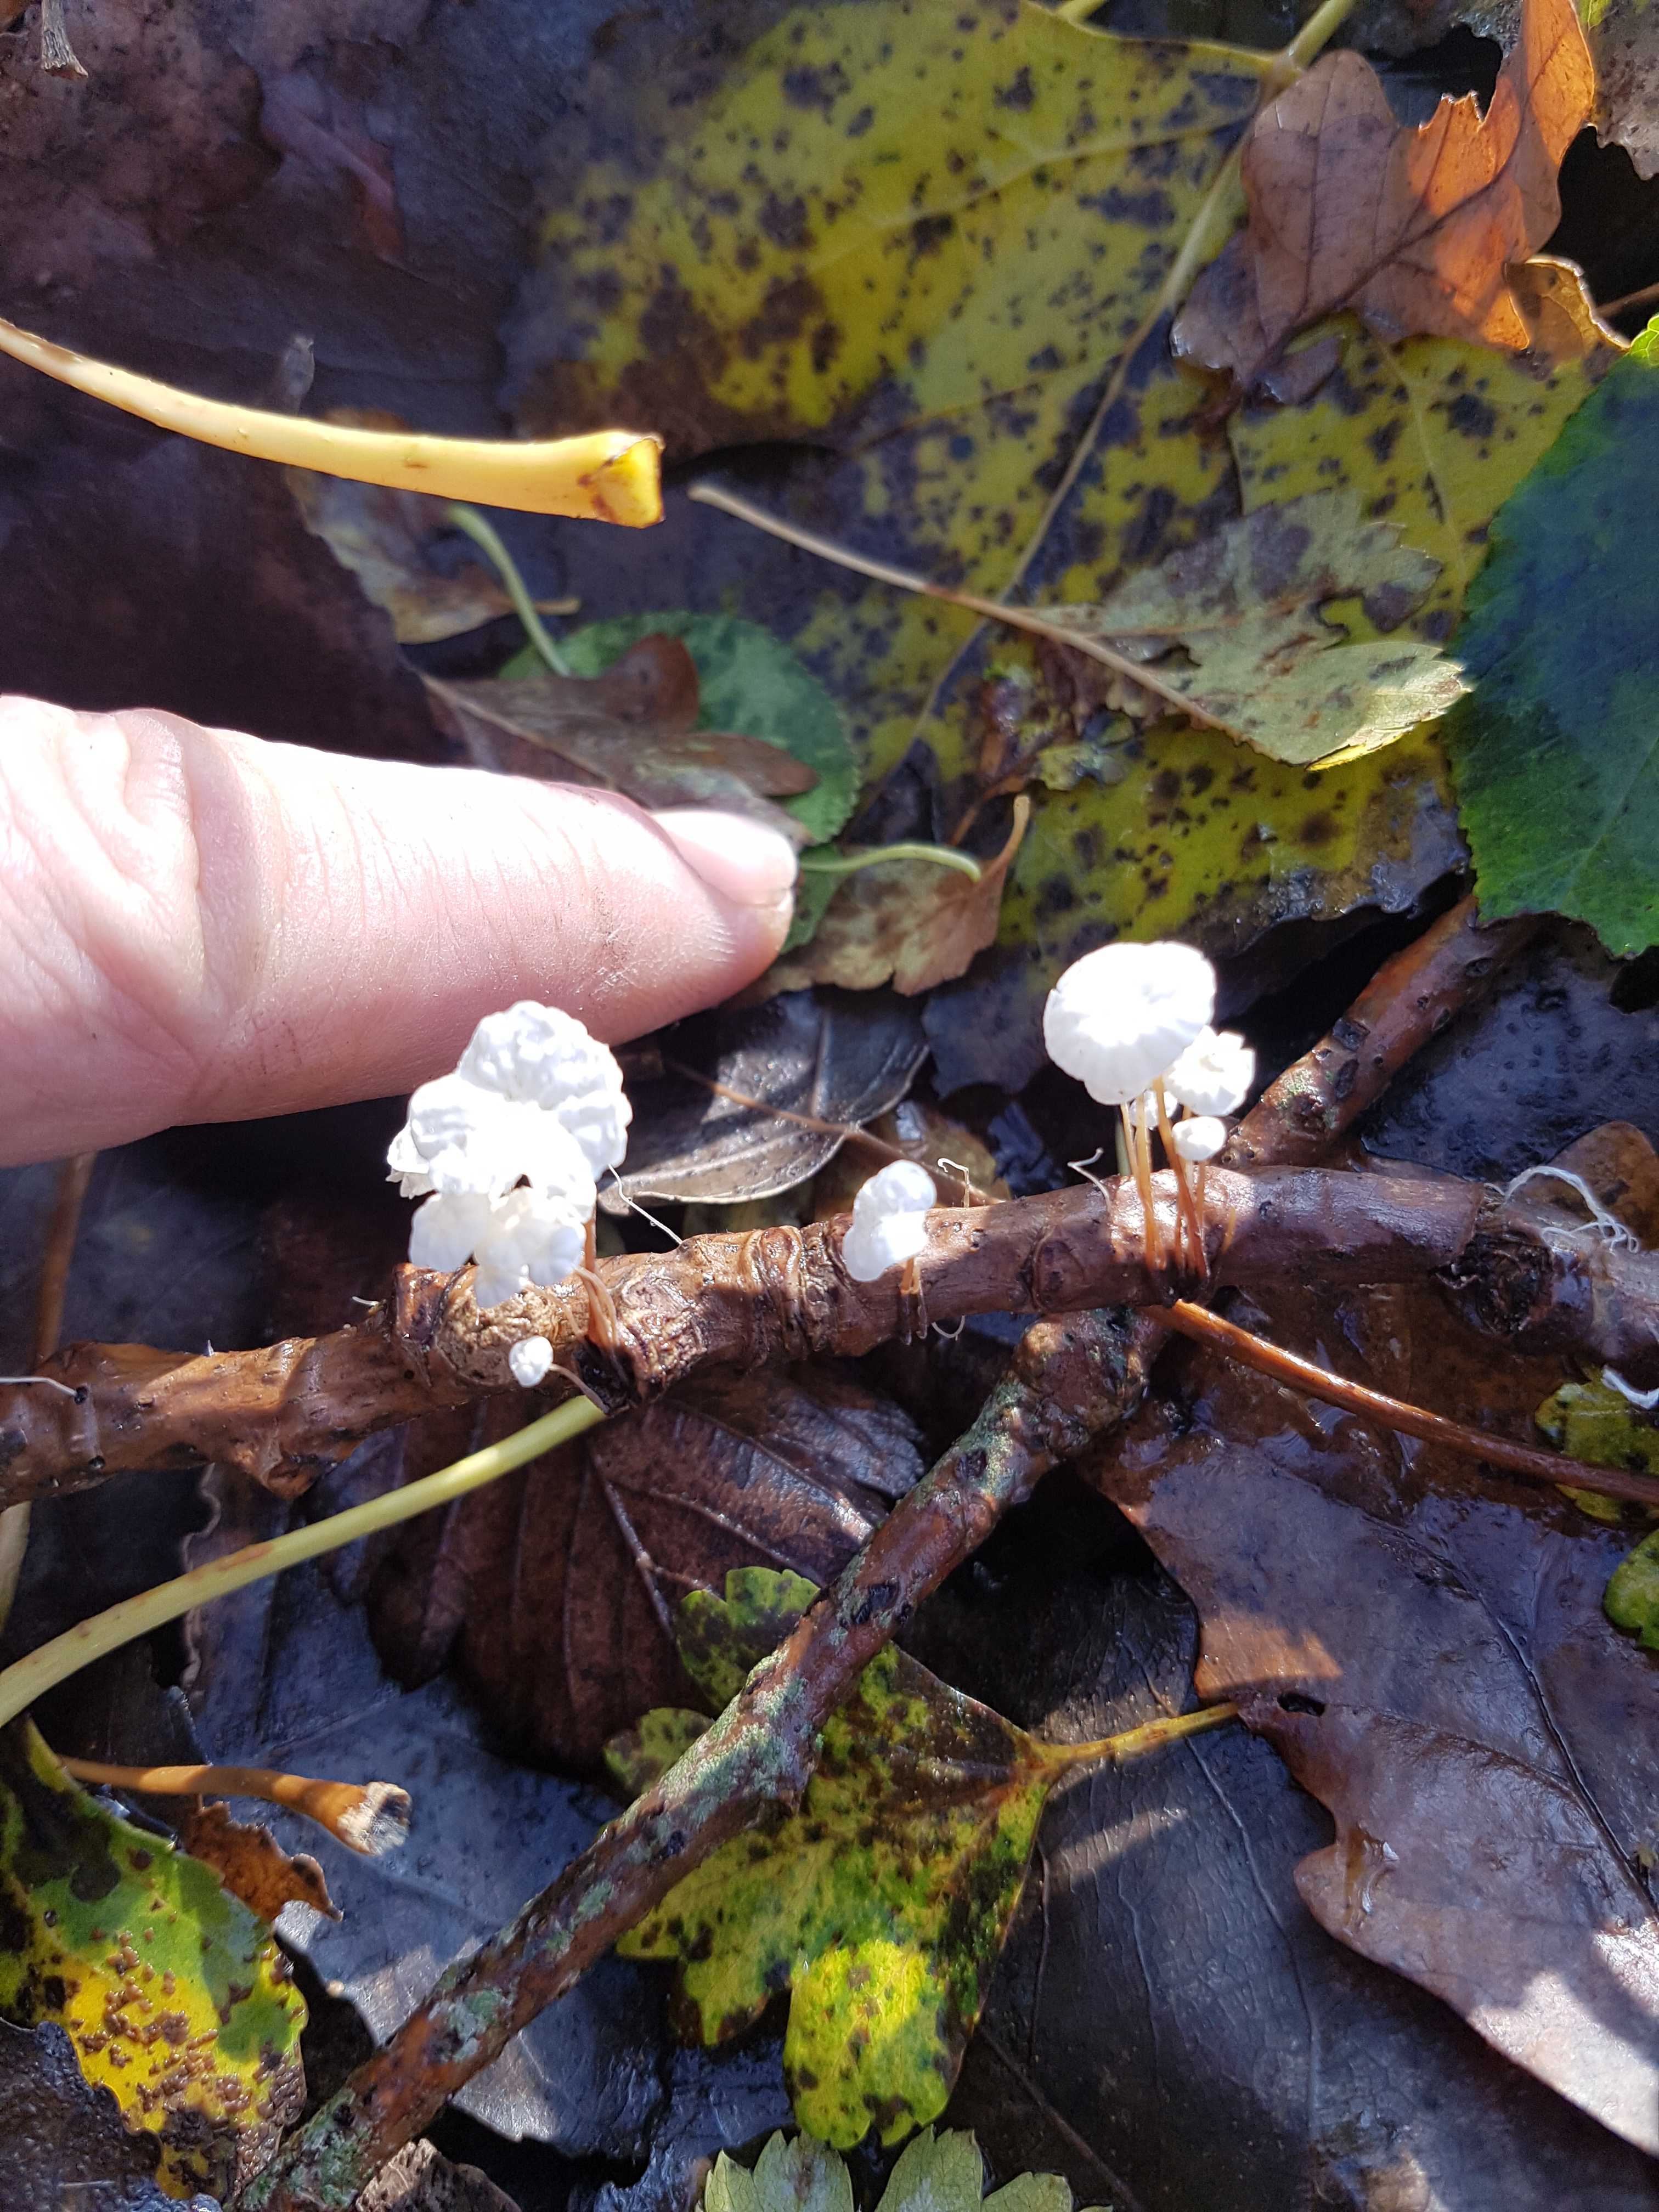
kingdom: Fungi
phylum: Basidiomycota
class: Agaricomycetes
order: Agaricales
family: Omphalotaceae
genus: Collybiopsis
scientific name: Collybiopsis ramealis
